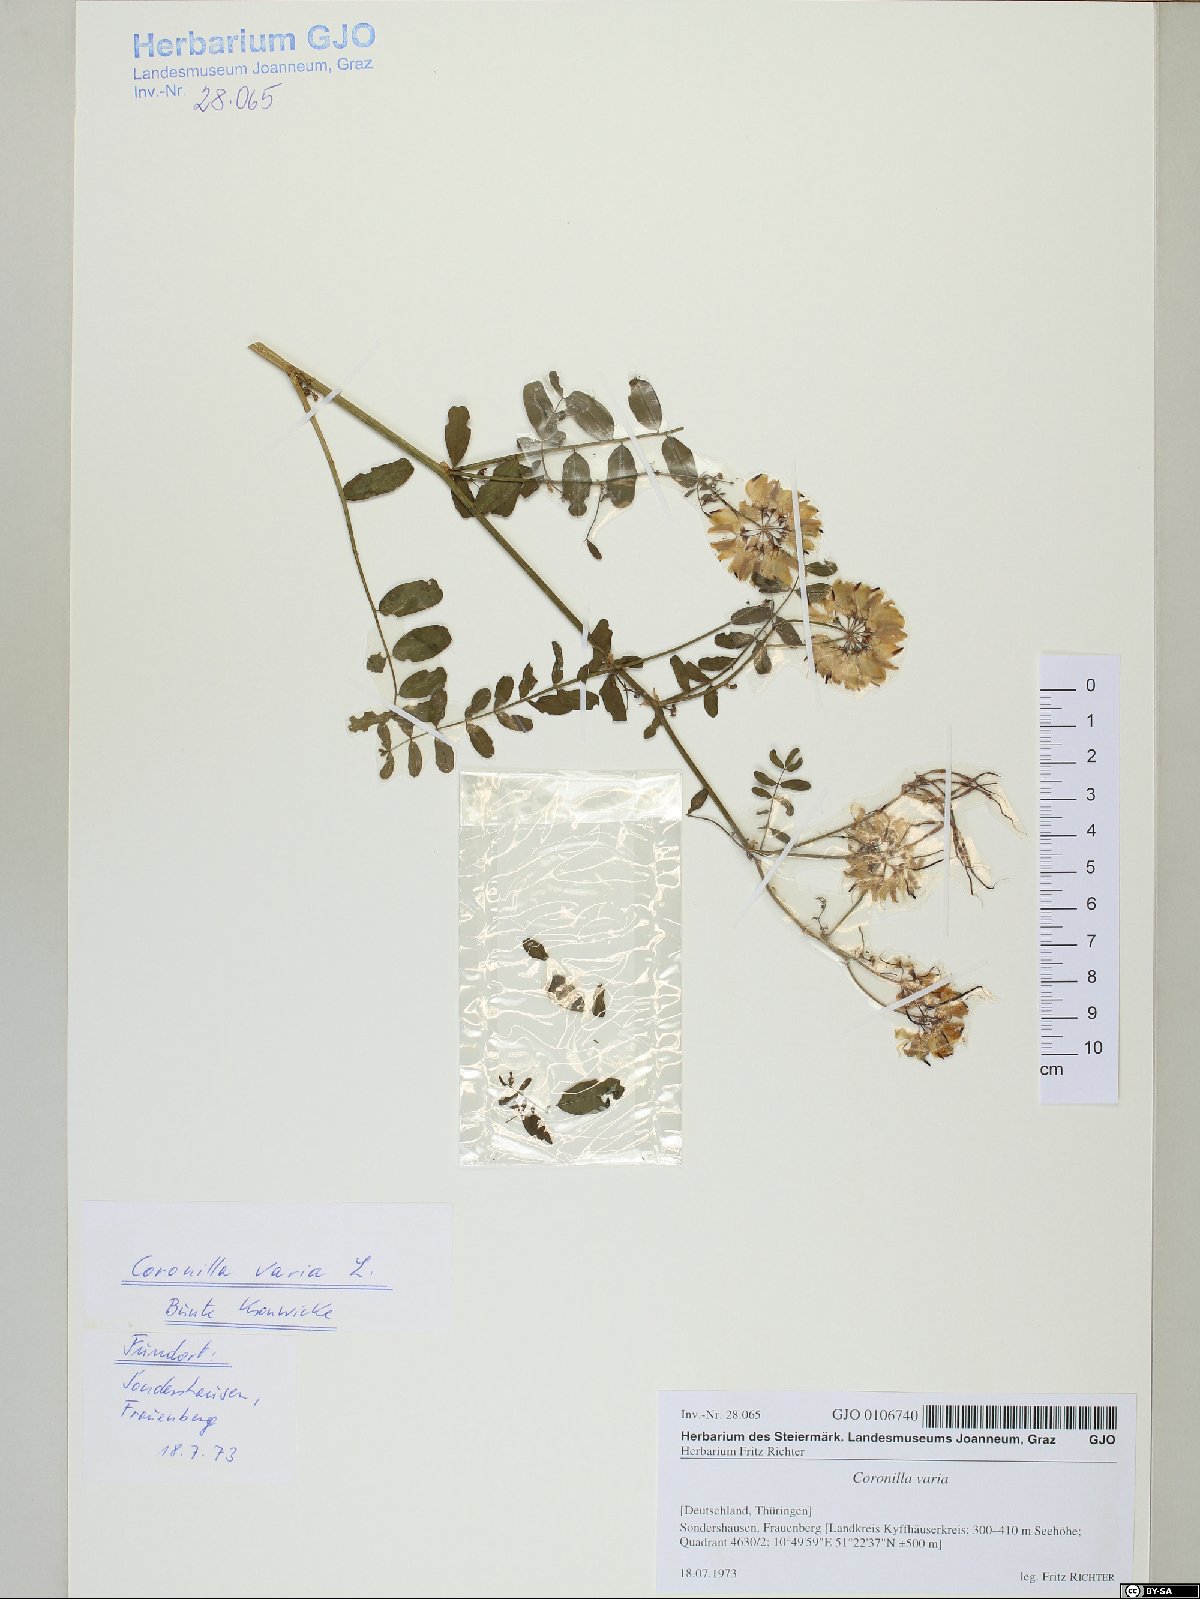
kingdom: Plantae
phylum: Tracheophyta
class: Magnoliopsida
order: Fabales
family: Fabaceae
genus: Coronilla
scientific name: Coronilla varia
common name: Crownvetch
